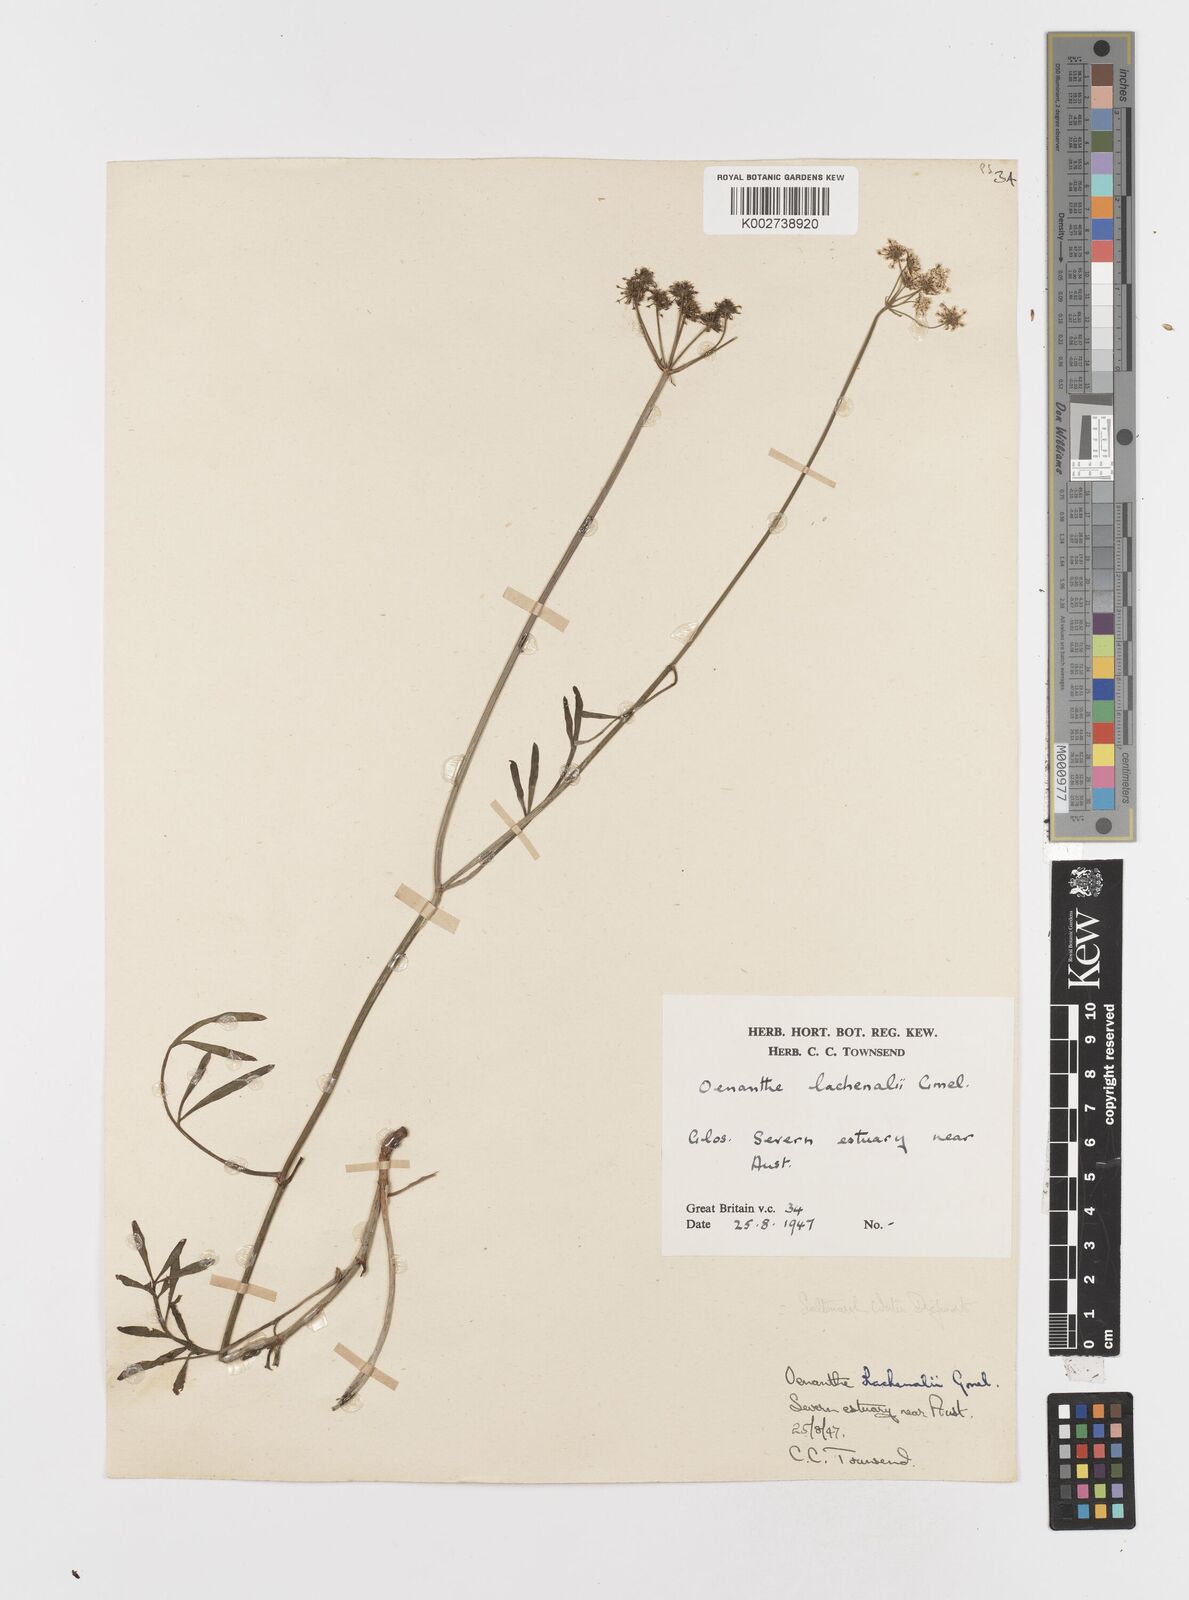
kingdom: Plantae
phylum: Tracheophyta
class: Magnoliopsida
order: Apiales
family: Apiaceae
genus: Oenanthe
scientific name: Oenanthe lachenalii
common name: Parsley water-dropwort
